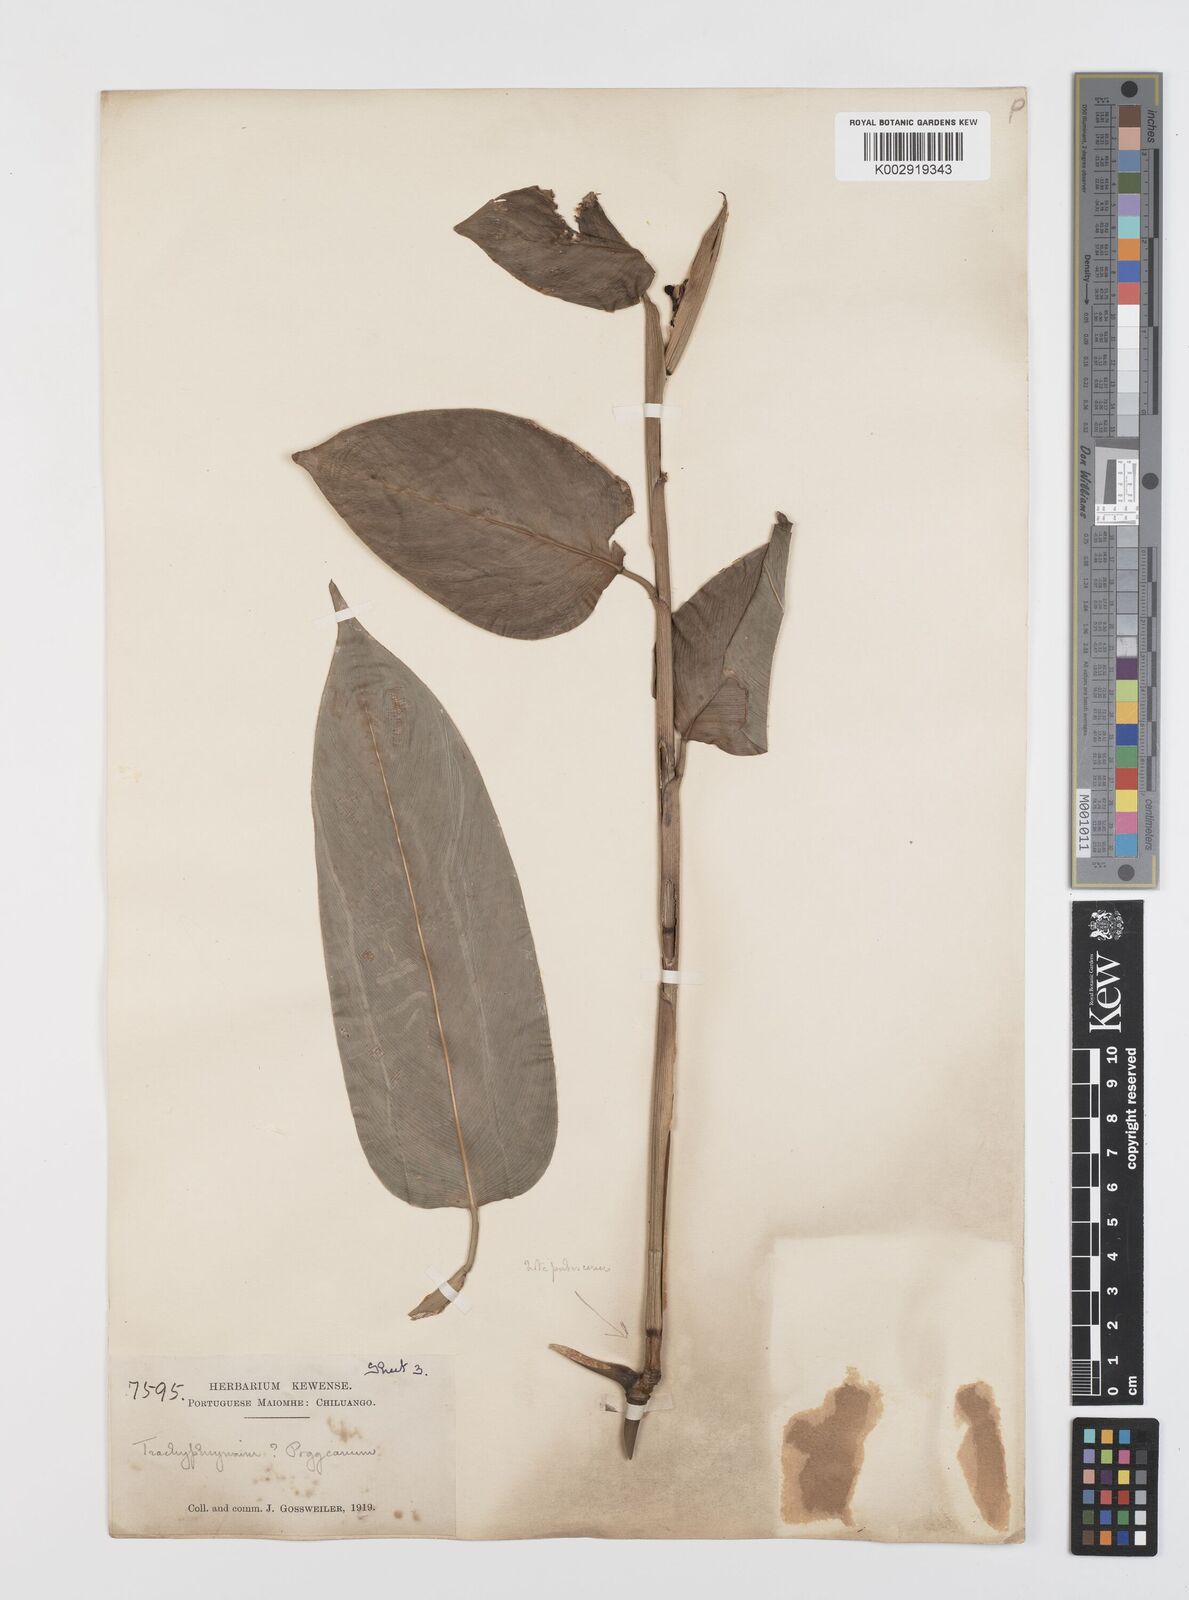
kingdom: Plantae
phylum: Tracheophyta
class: Liliopsida
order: Zingiberales
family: Marantaceae
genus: Hypselodelphys
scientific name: Hypselodelphys velutina
